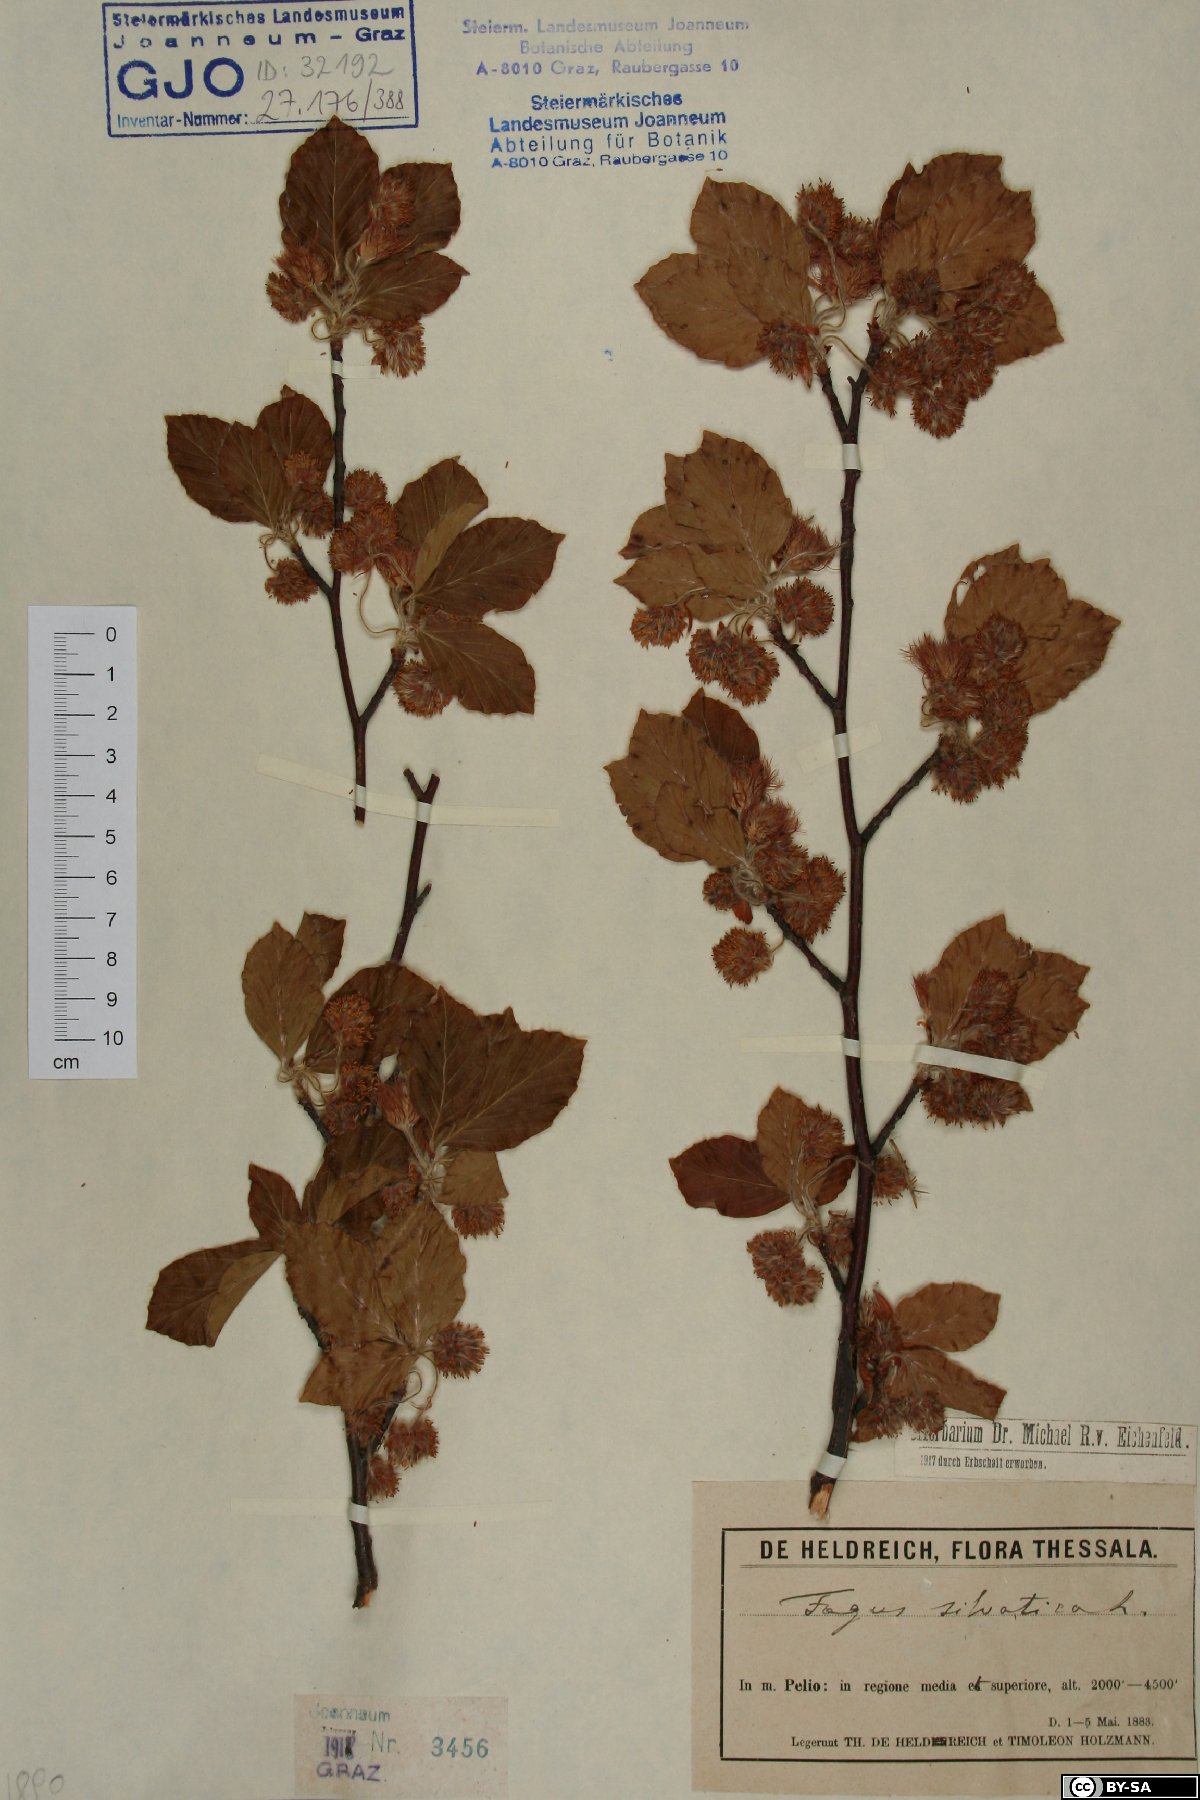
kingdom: Plantae
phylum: Tracheophyta
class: Magnoliopsida
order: Fagales
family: Fagaceae
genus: Fagus
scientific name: Fagus sylvatica
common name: Beech
